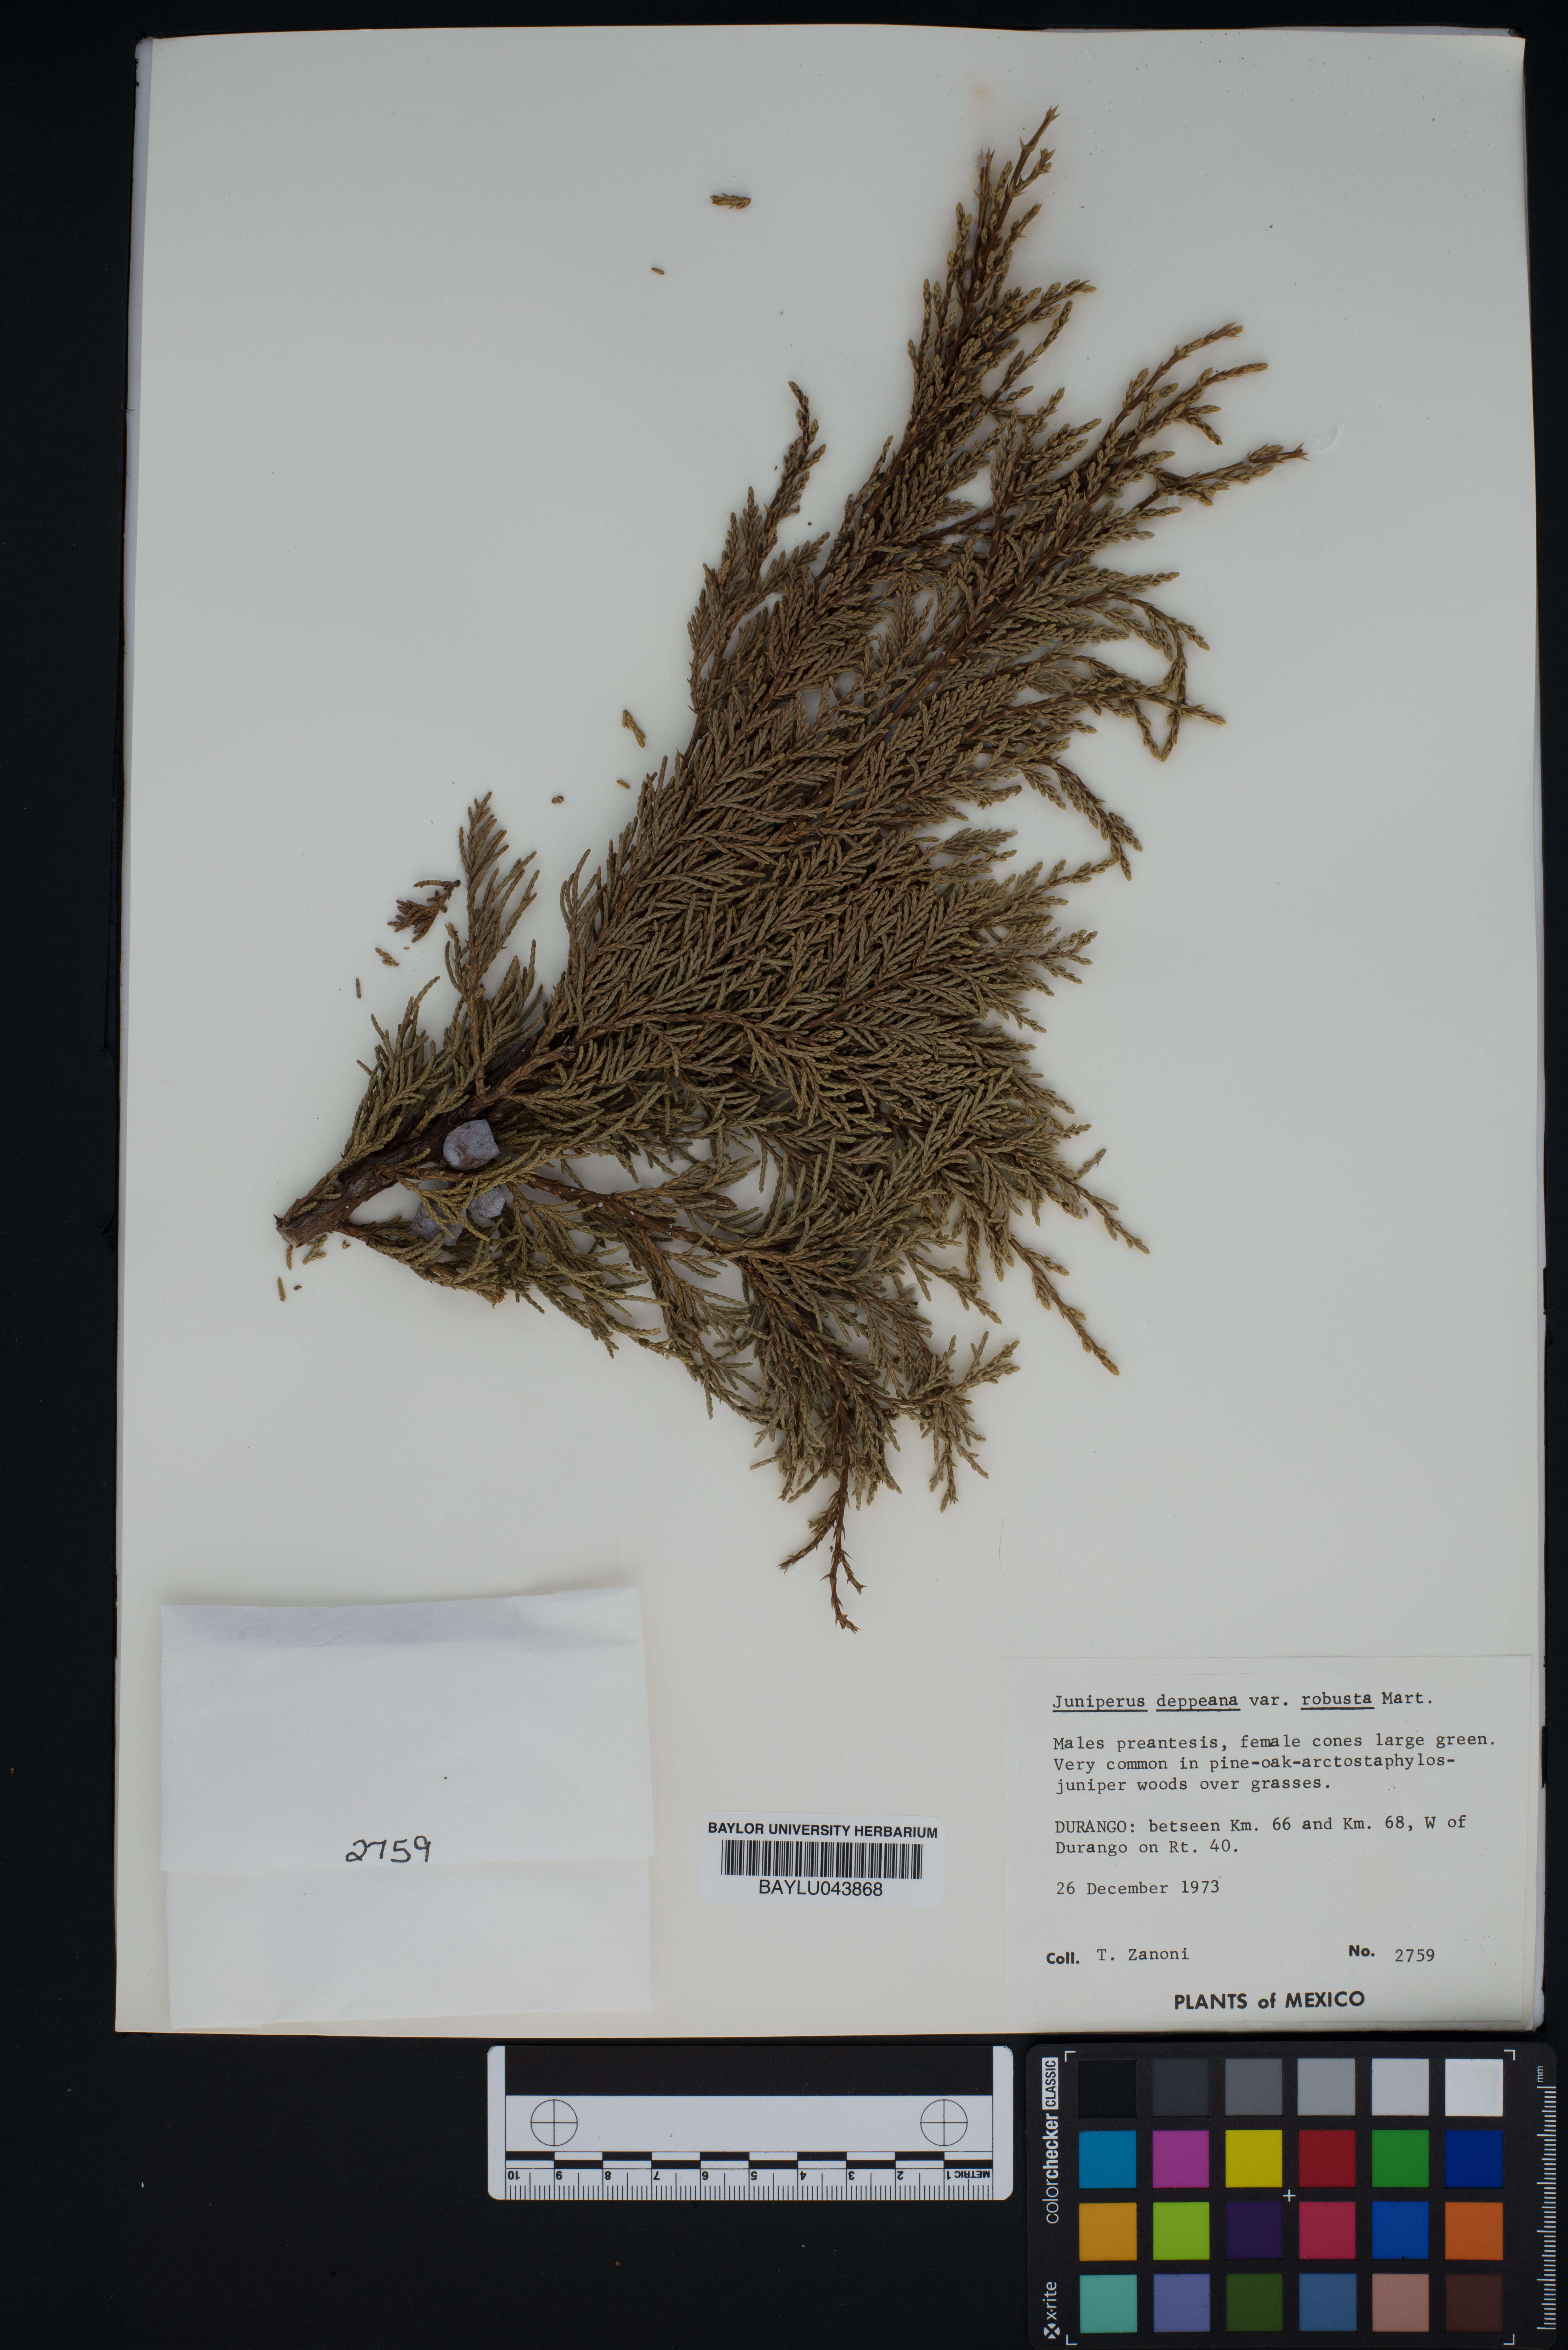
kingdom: Plantae
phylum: Tracheophyta
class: Pinopsida
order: Pinales
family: Cupressaceae
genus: Juniperus
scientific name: Juniperus deppeana
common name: Alligator juniper
